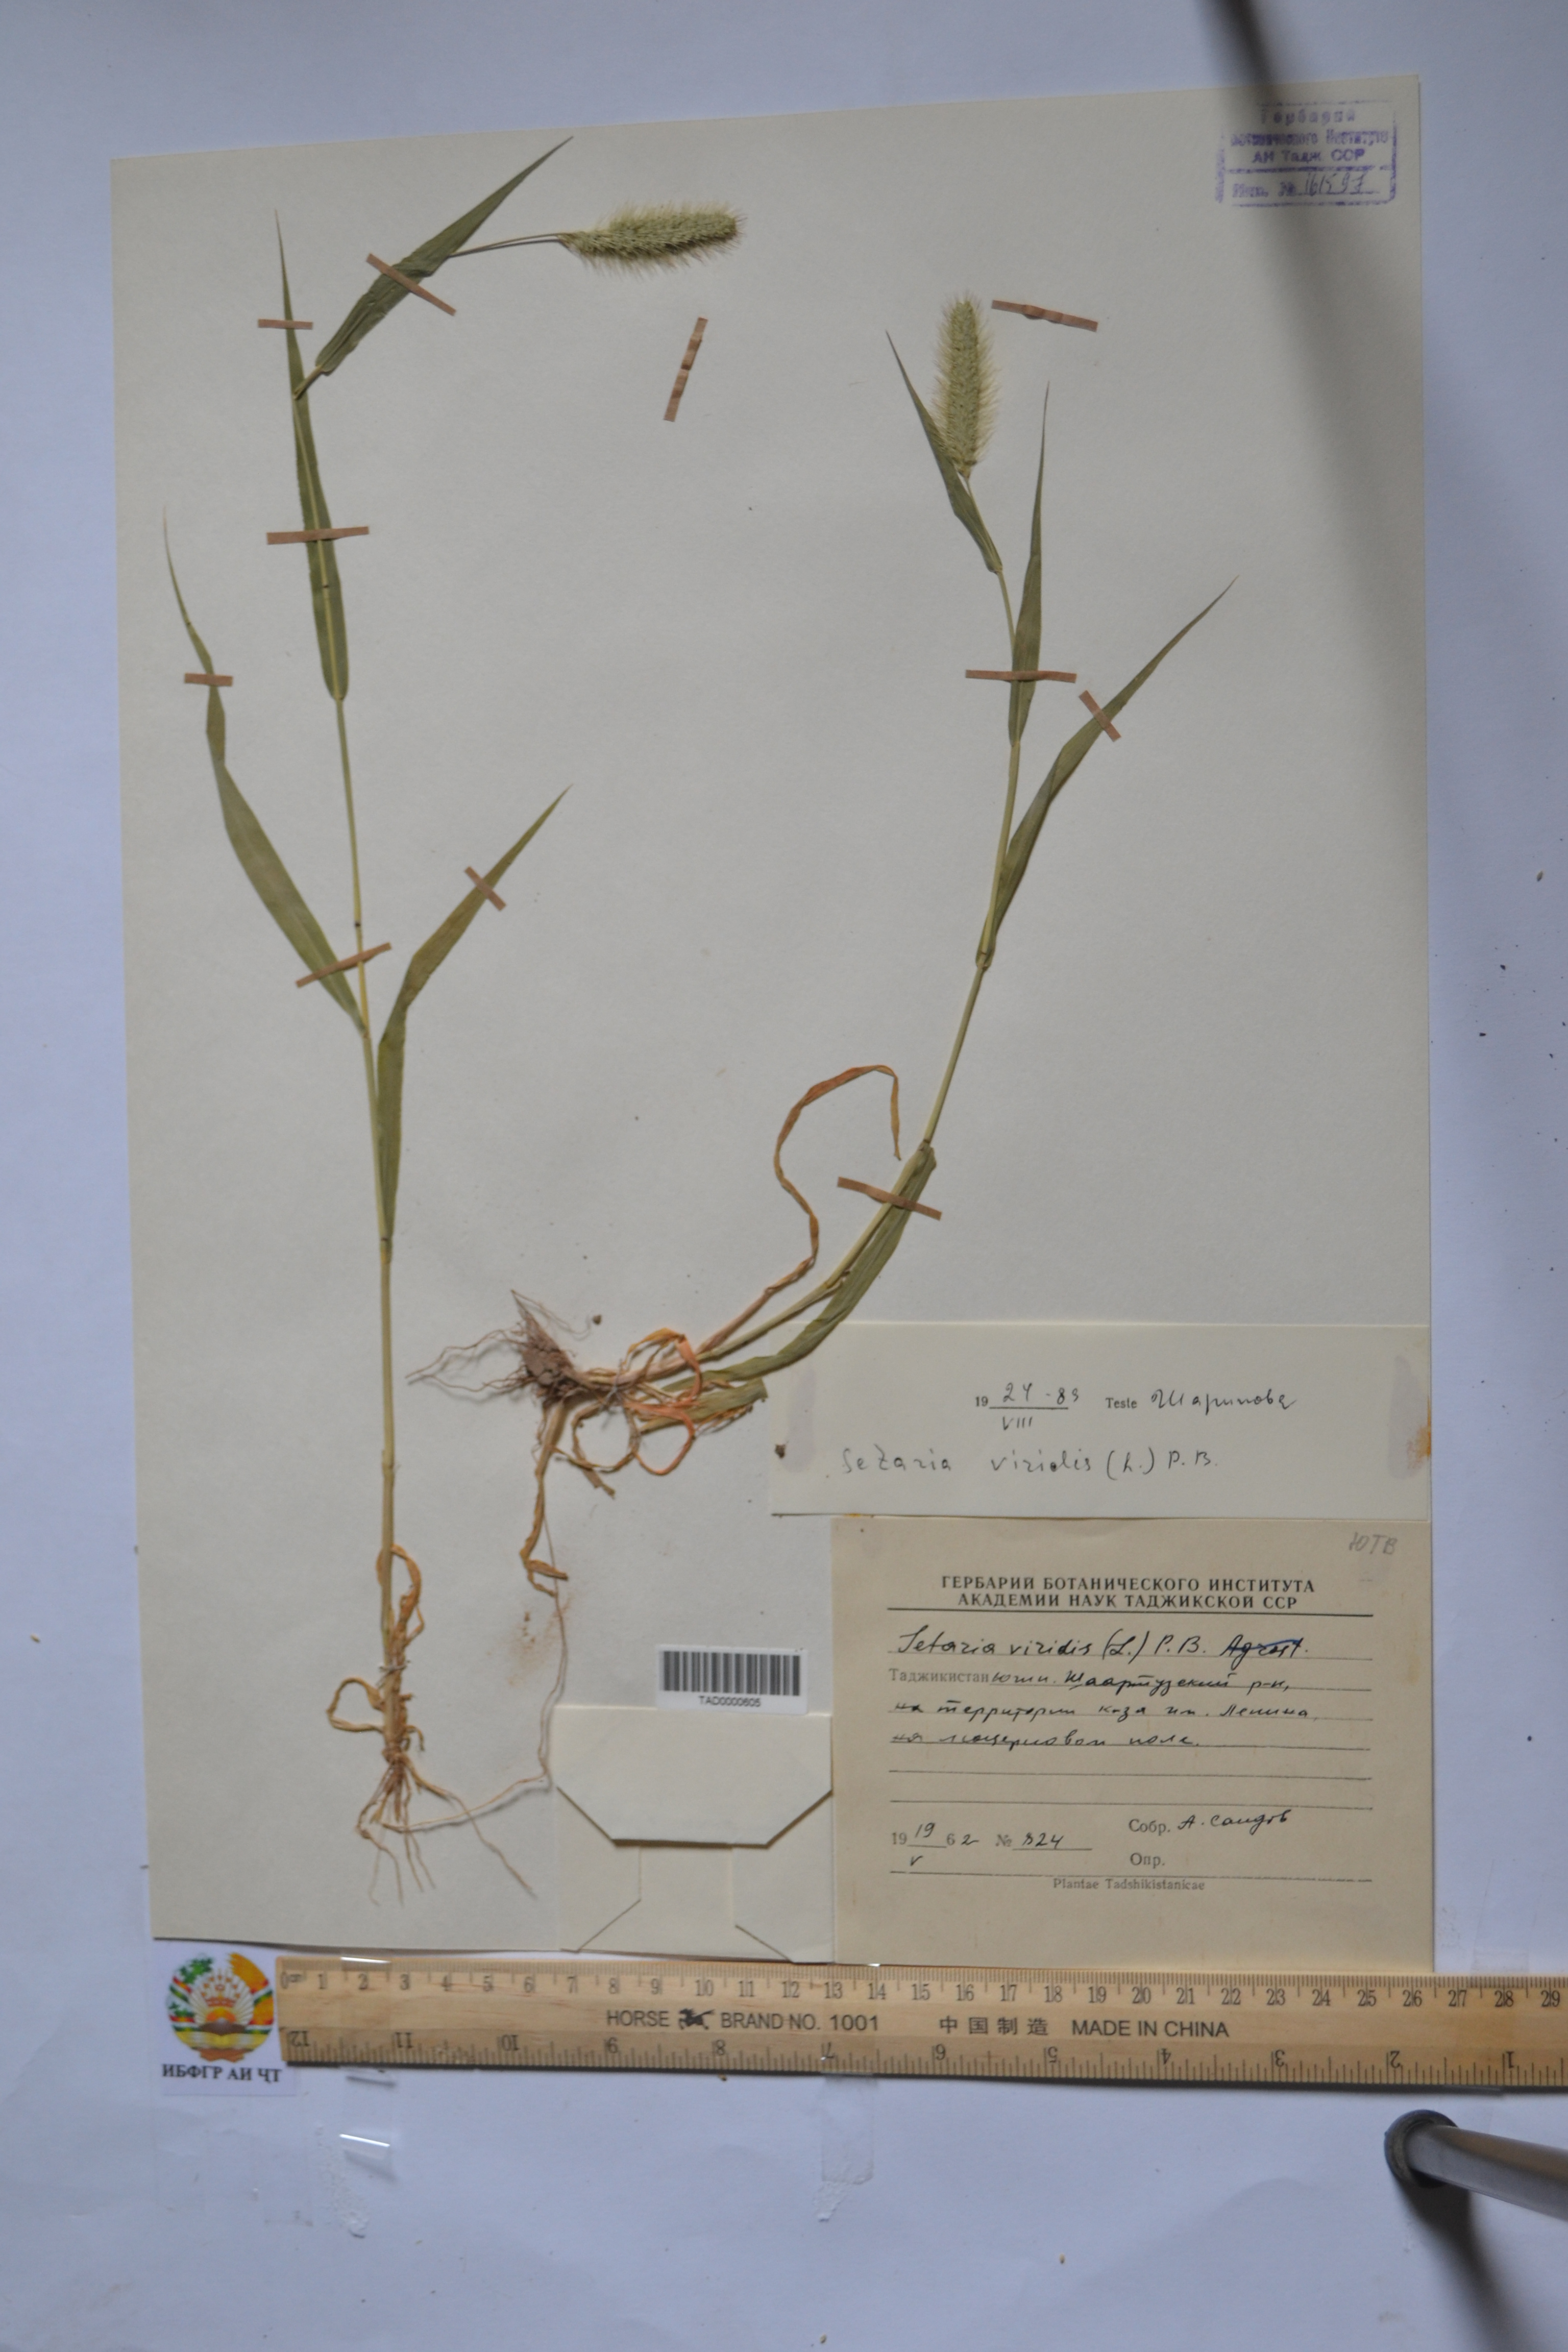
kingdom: Plantae
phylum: Tracheophyta
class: Liliopsida
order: Poales
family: Poaceae
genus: Setaria
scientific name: Setaria viridis
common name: Green bristlegrass
